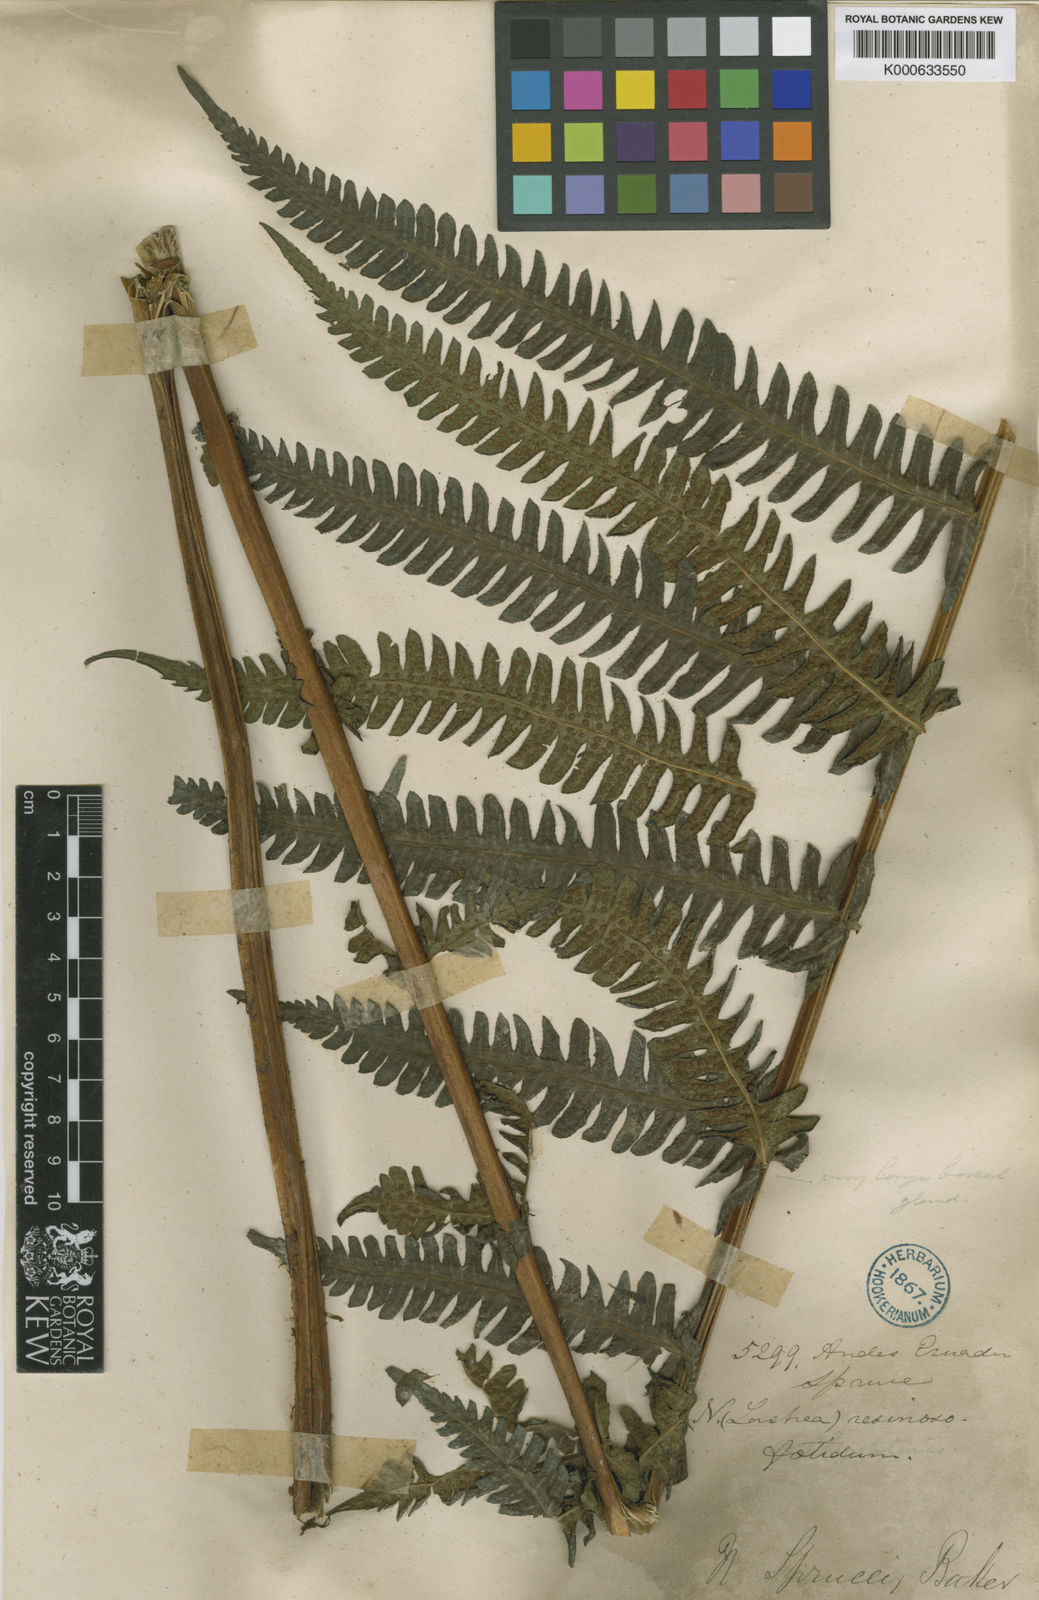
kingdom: Plantae
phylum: Tracheophyta
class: Polypodiopsida
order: Polypodiales
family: Thelypteridaceae
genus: Amauropelta
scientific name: Amauropelta pachyrhachis
